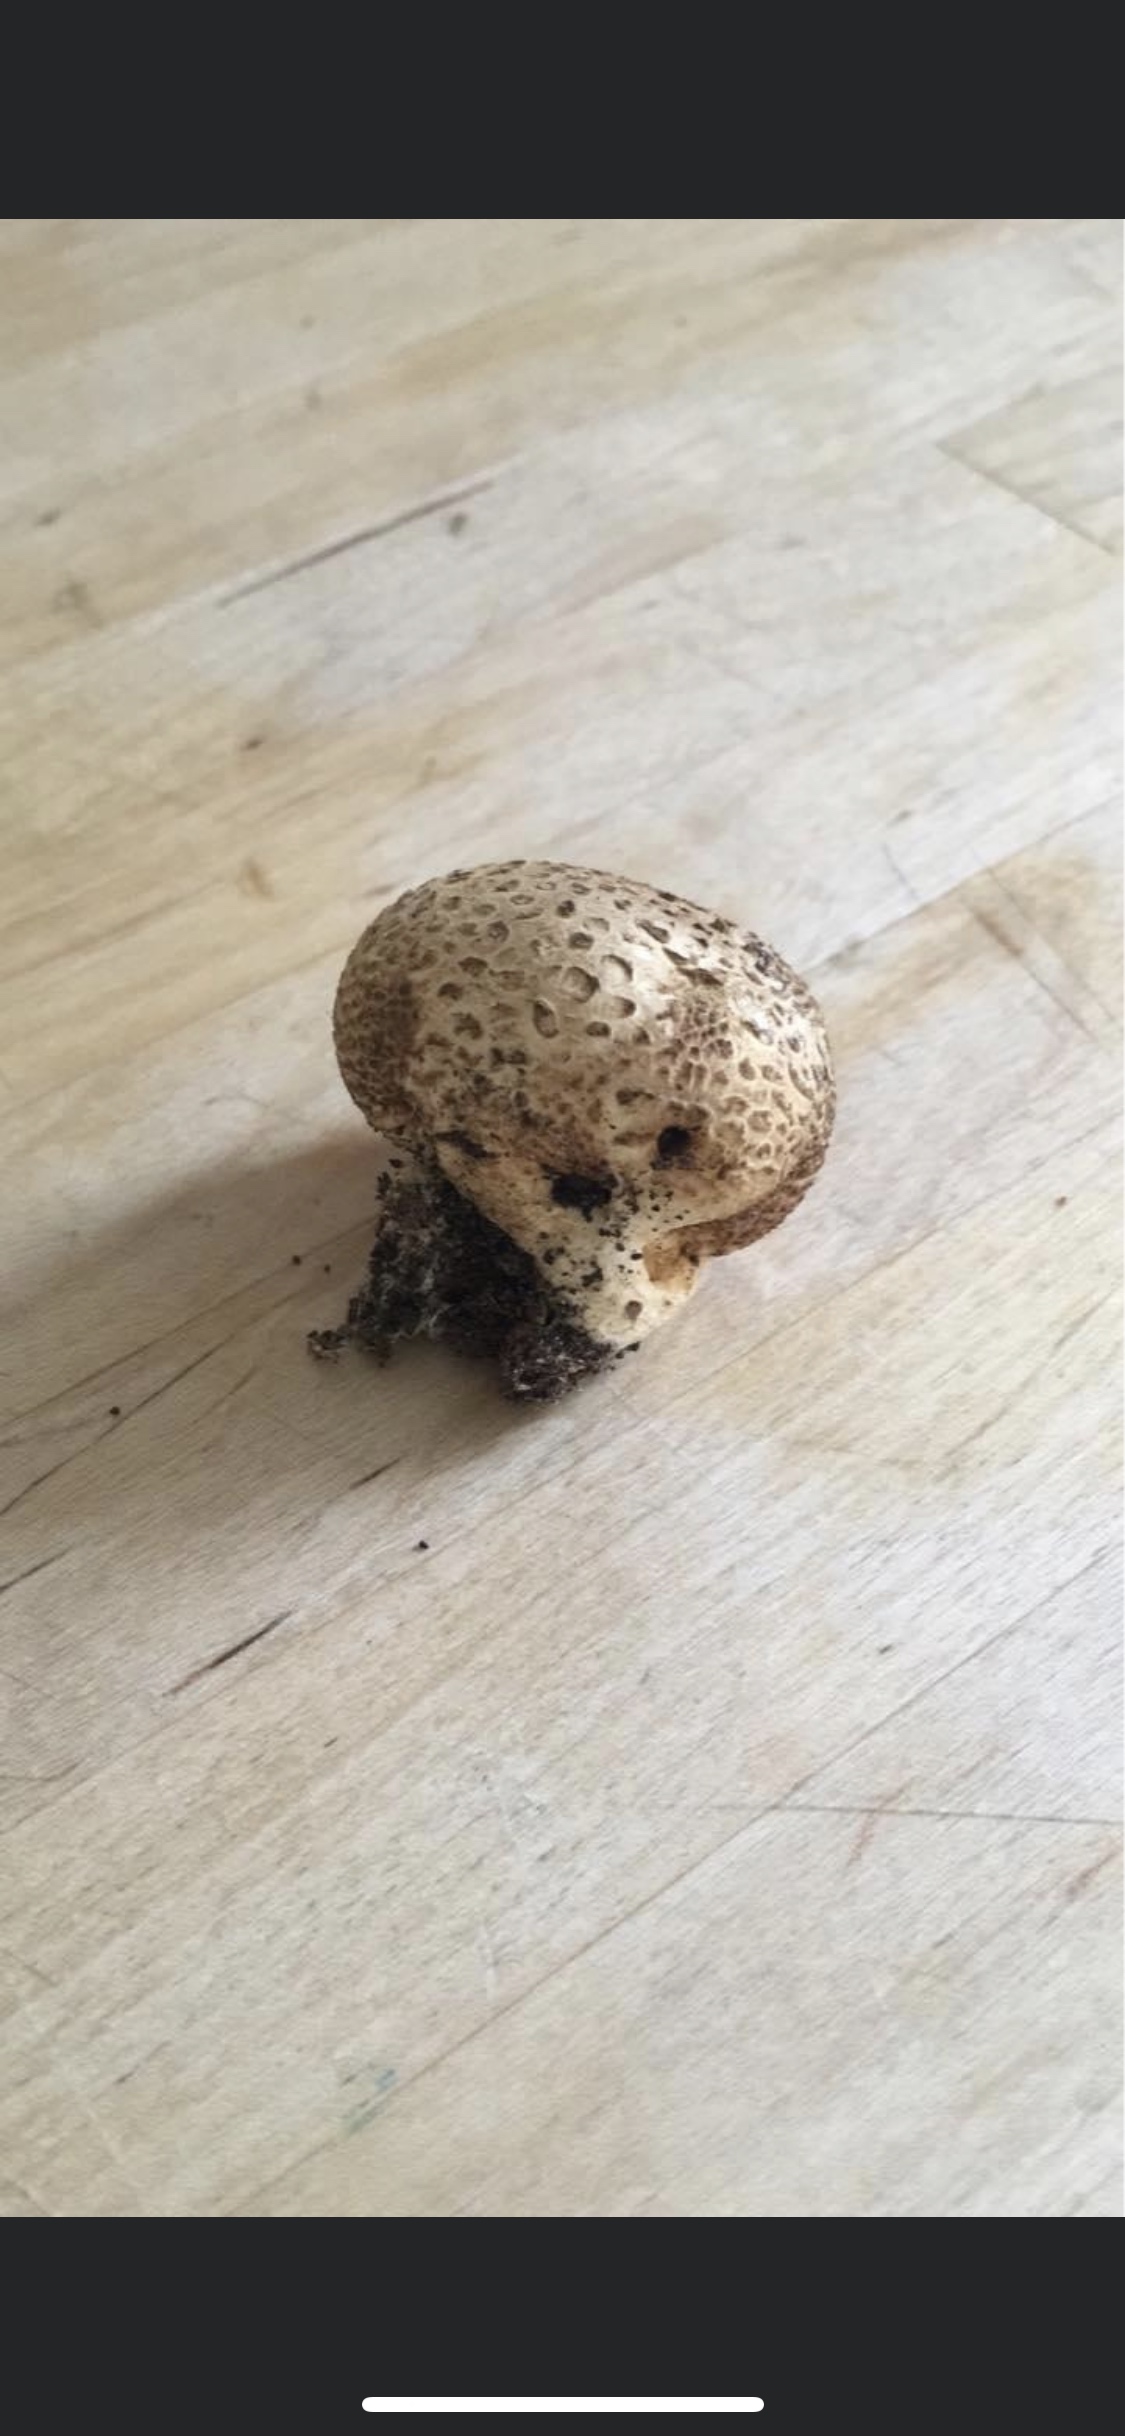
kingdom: Fungi
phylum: Basidiomycota
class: Agaricomycetes
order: Boletales
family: Sclerodermataceae
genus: Scleroderma
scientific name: Scleroderma
